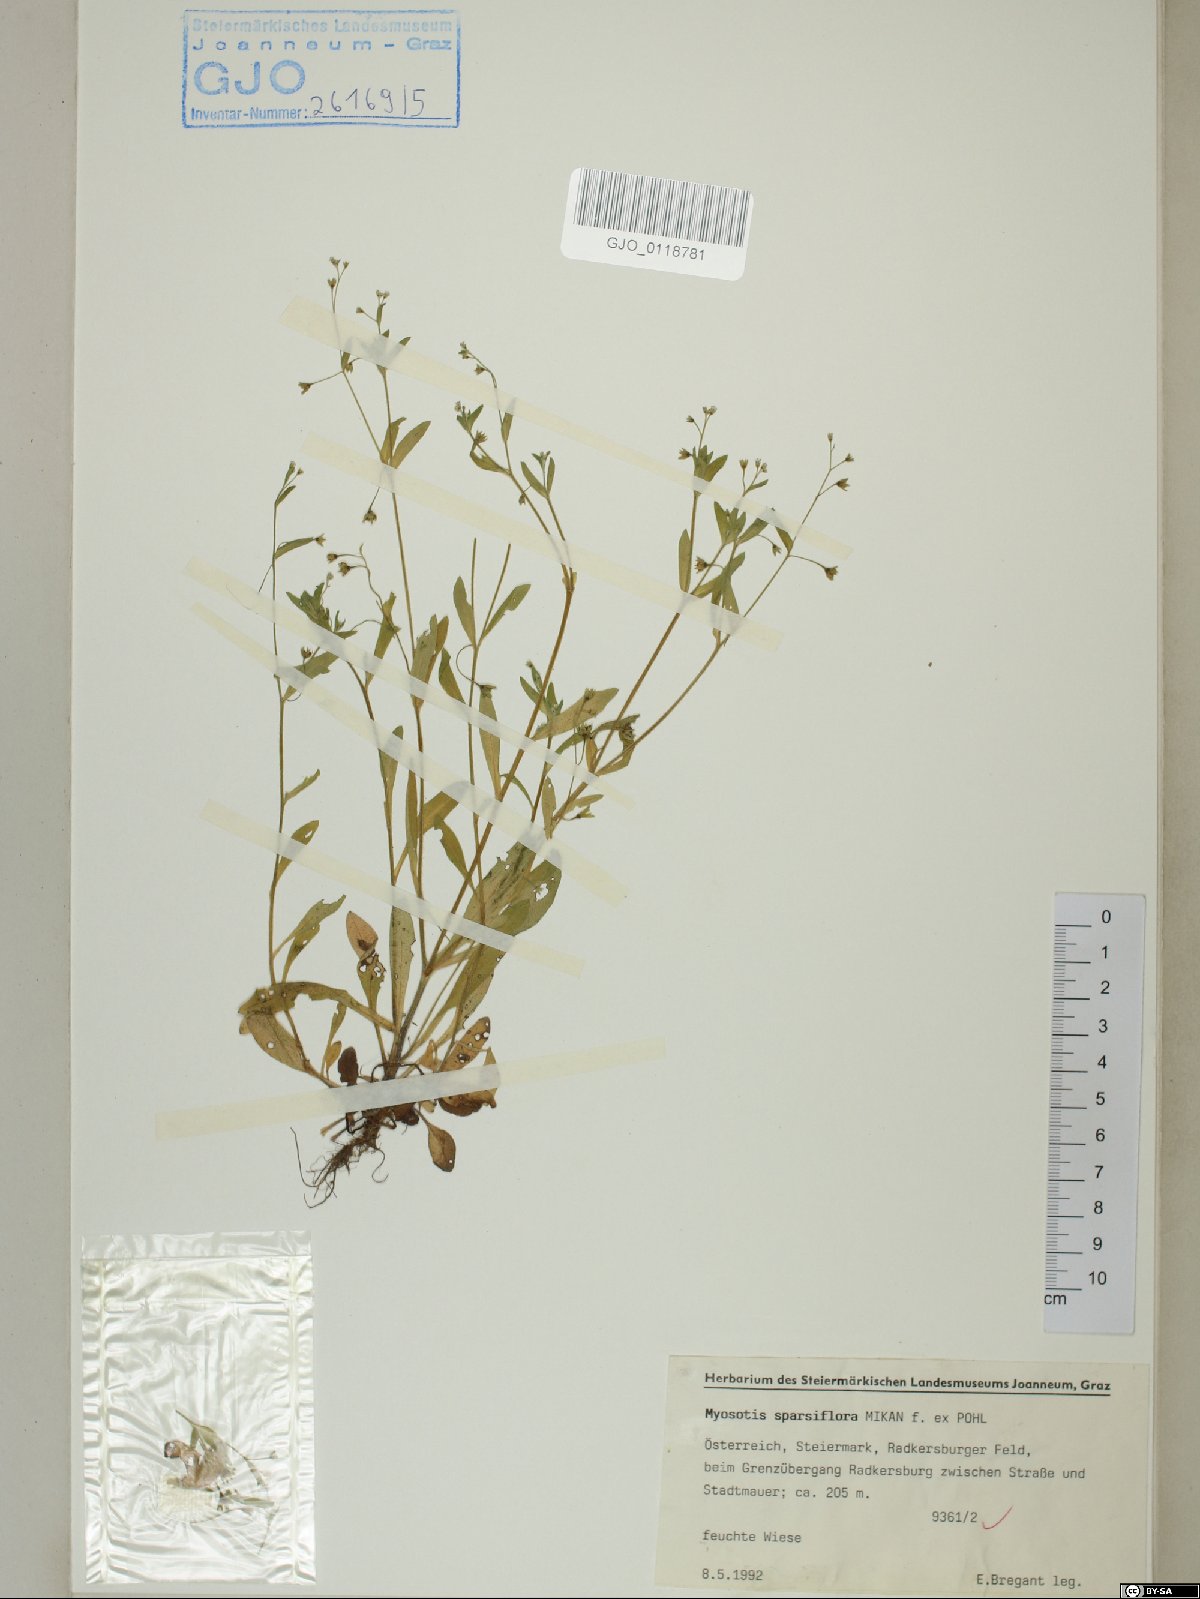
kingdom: Plantae
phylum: Tracheophyta
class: Magnoliopsida
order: Boraginales
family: Boraginaceae
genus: Myosotis
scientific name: Myosotis sparsiflora
